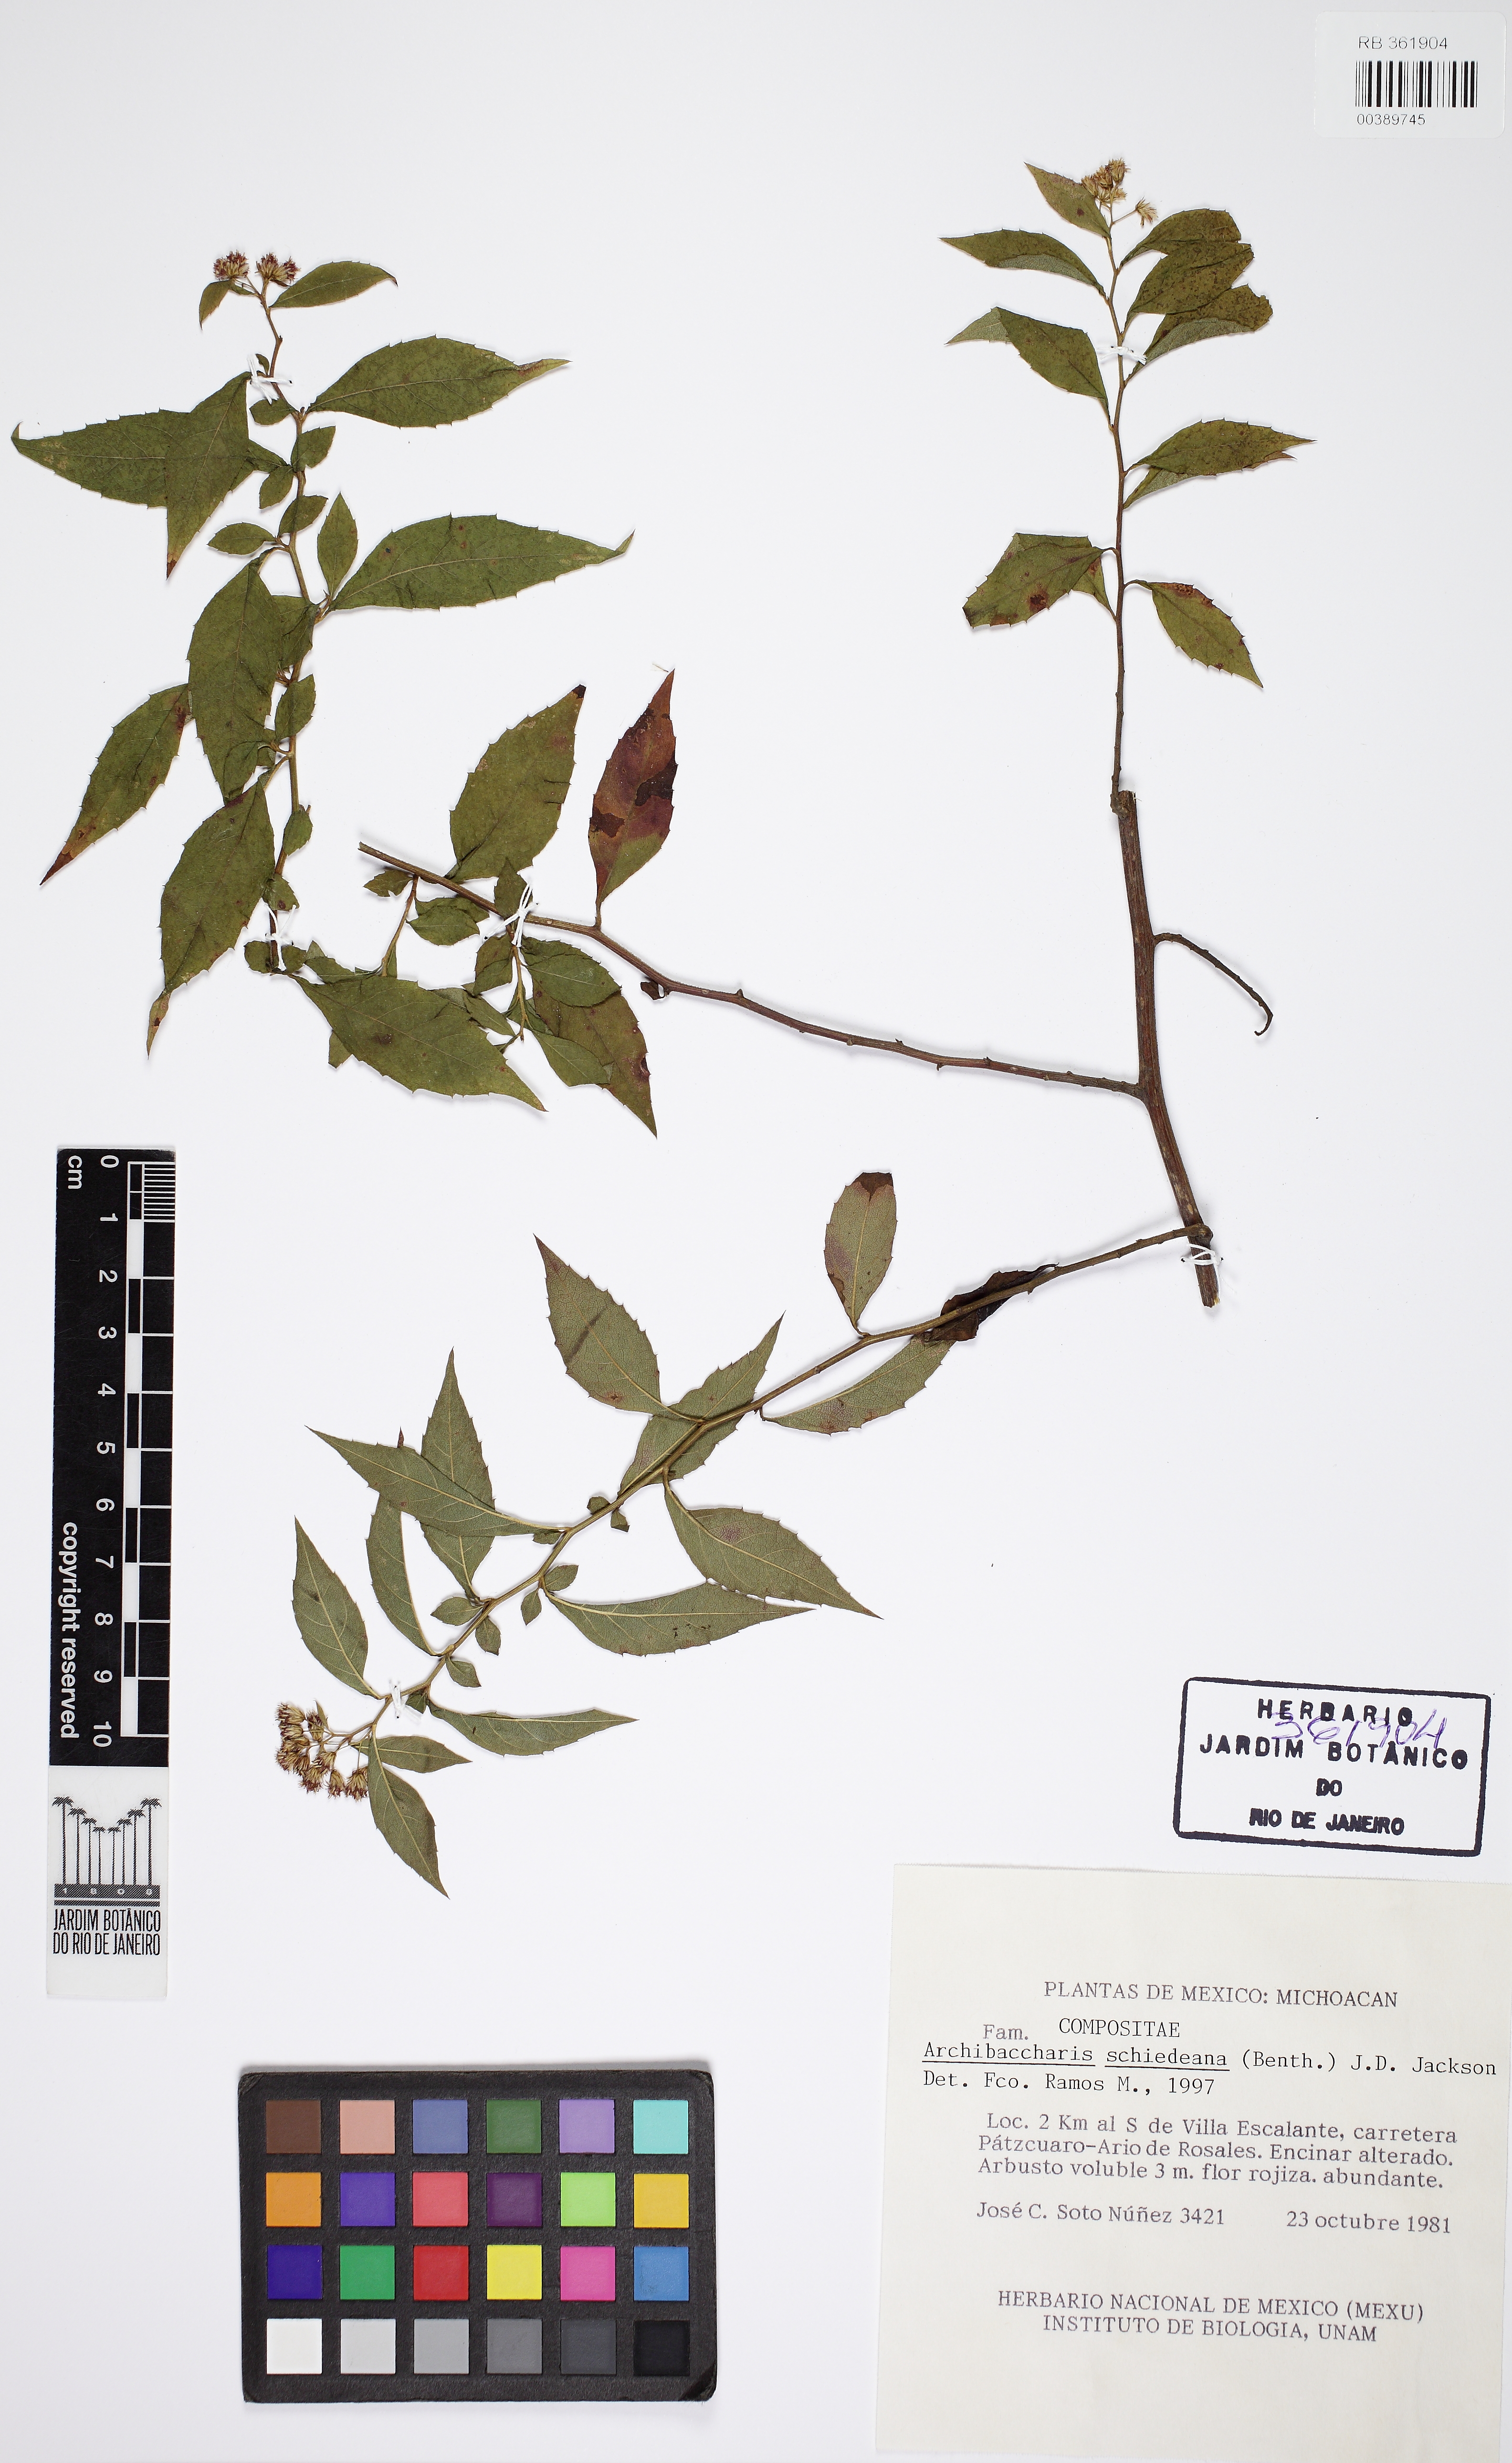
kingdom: Plantae
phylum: Tracheophyta
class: Magnoliopsida
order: Asterales
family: Asteraceae
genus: Archibaccharis
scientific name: Archibaccharis schiedeana
